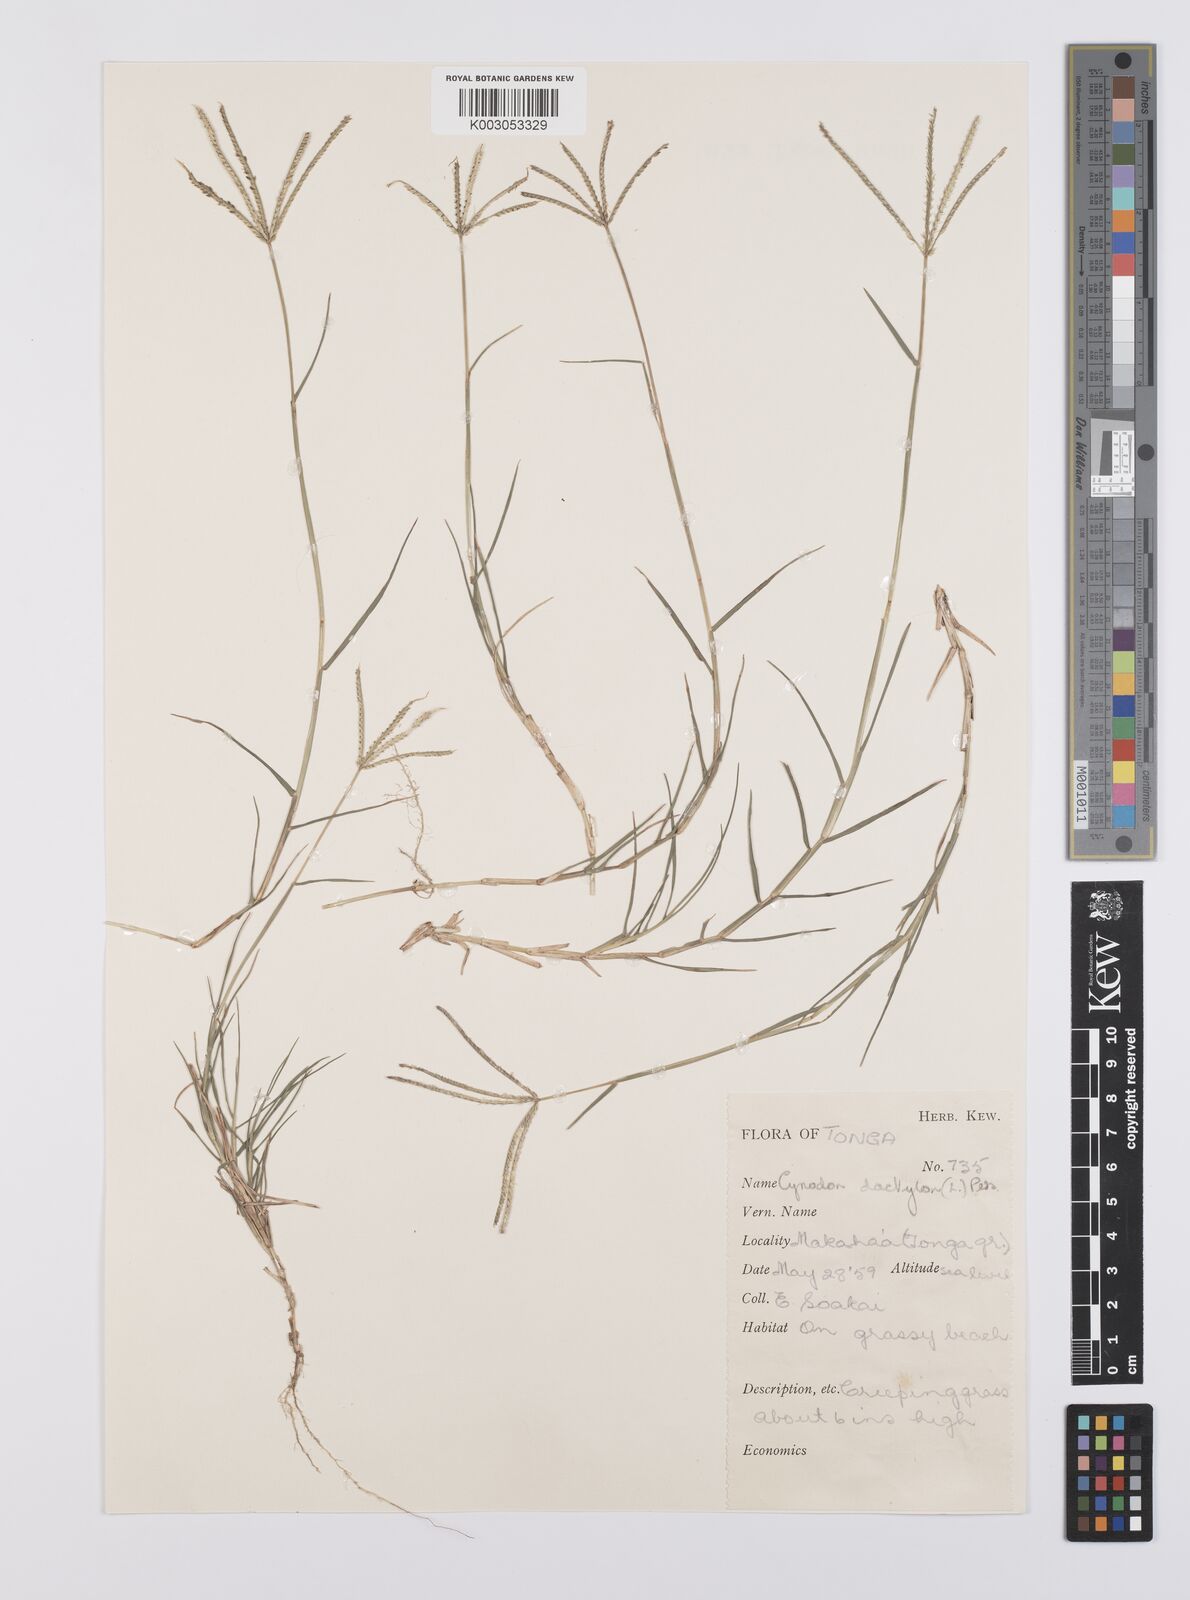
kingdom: Plantae
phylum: Tracheophyta
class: Liliopsida
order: Poales
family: Poaceae
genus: Cynodon
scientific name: Cynodon dactylon
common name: Bermuda grass
